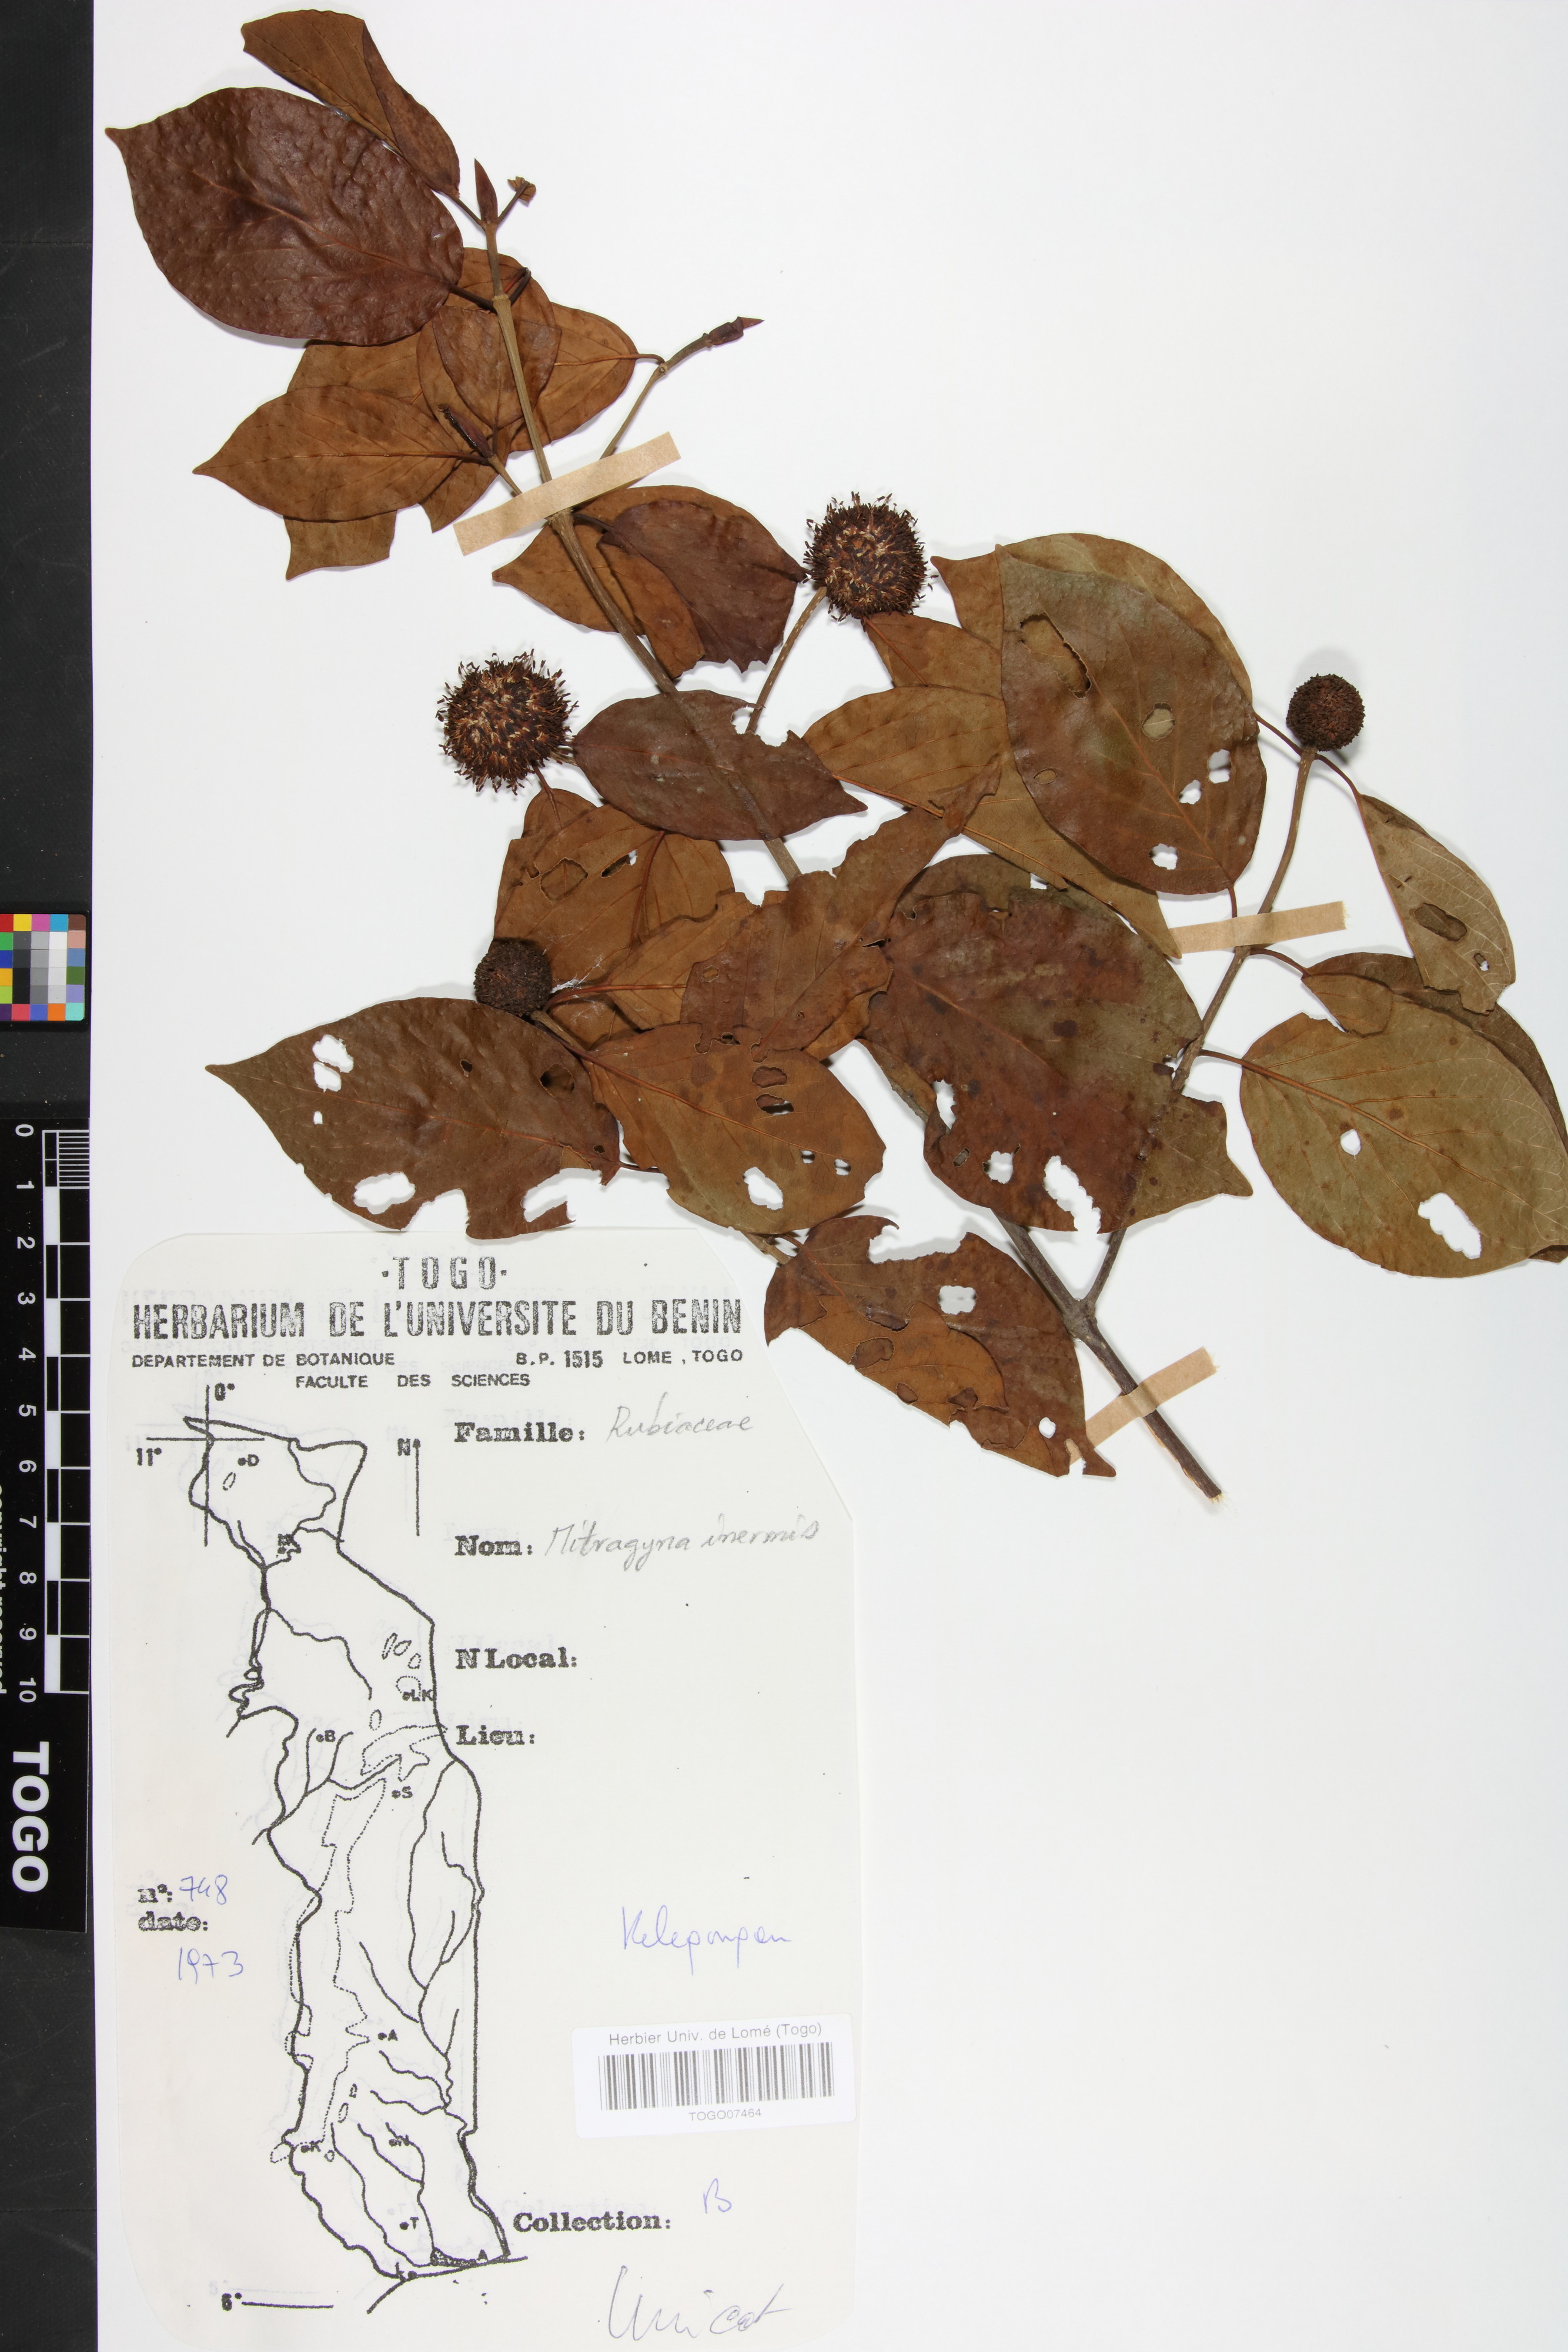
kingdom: Plantae
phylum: Tracheophyta
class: Magnoliopsida
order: Gentianales
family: Rubiaceae
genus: Mitragyna
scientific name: Mitragyna inermis
